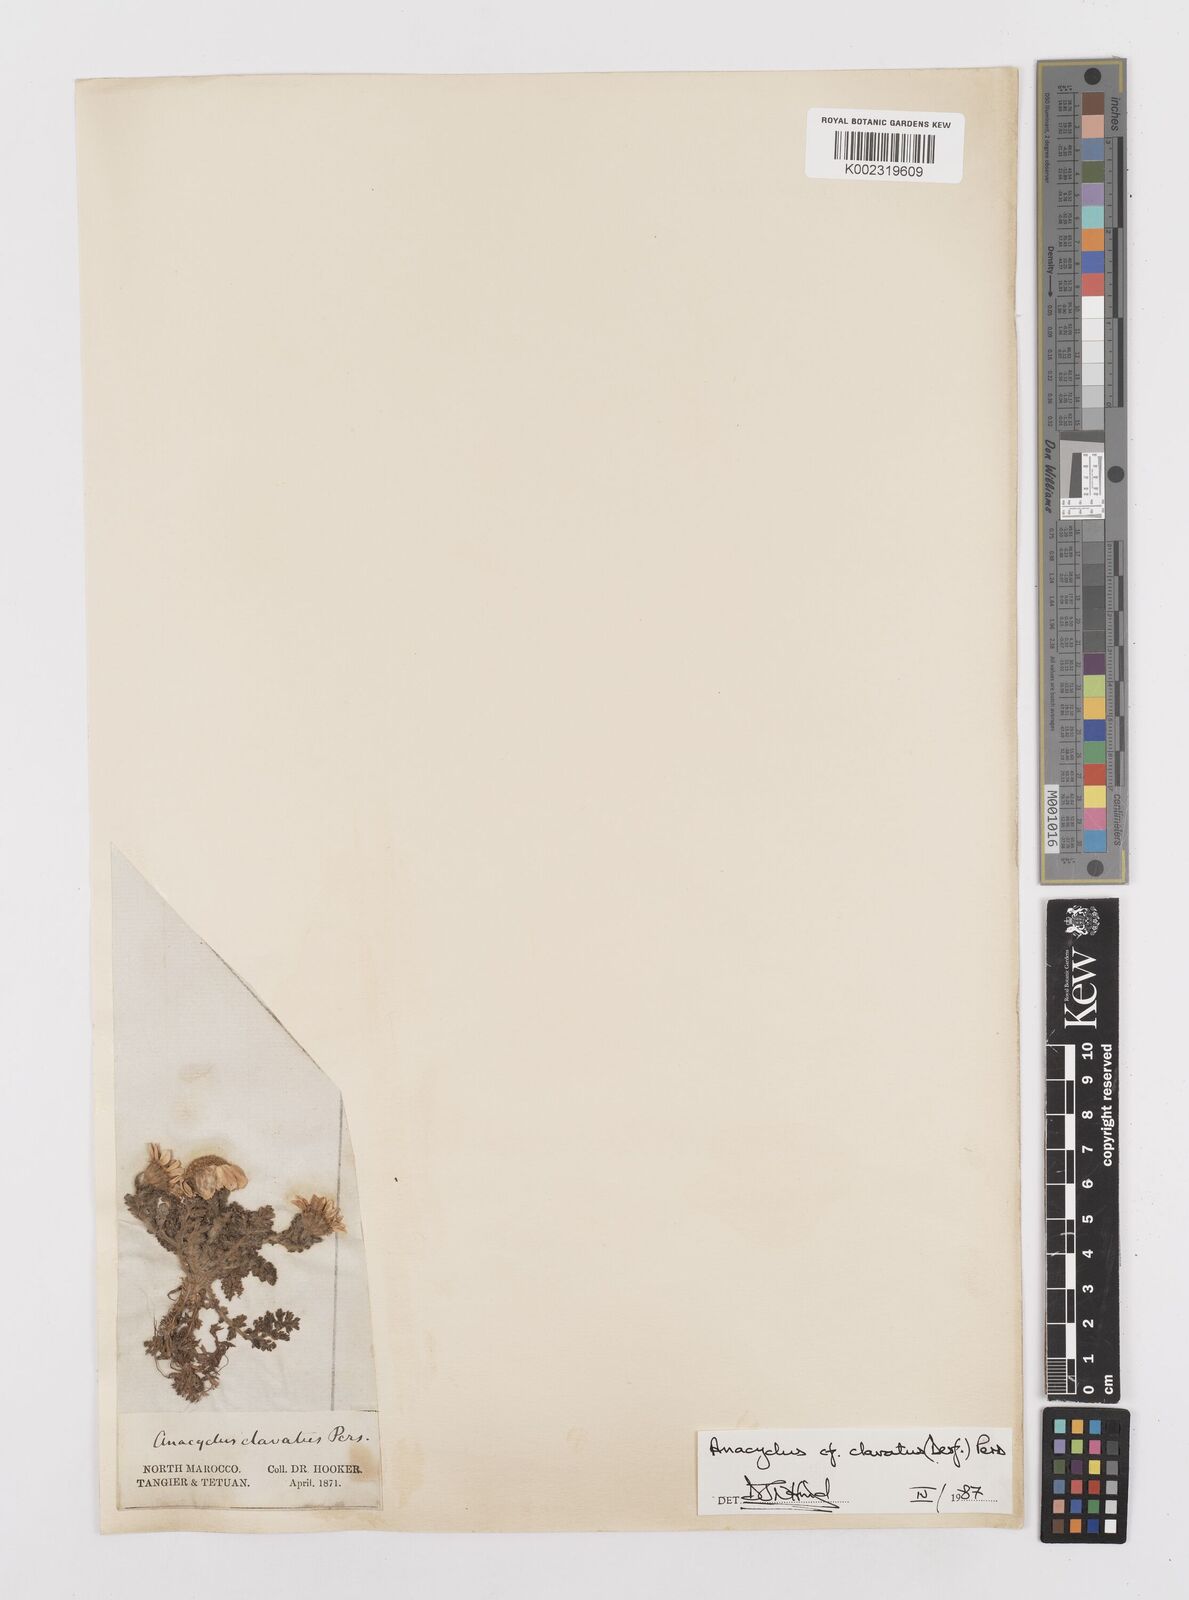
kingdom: Plantae
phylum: Tracheophyta
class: Magnoliopsida
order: Asterales
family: Asteraceae
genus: Anacyclus
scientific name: Anacyclus clavatus
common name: Whitebuttons
